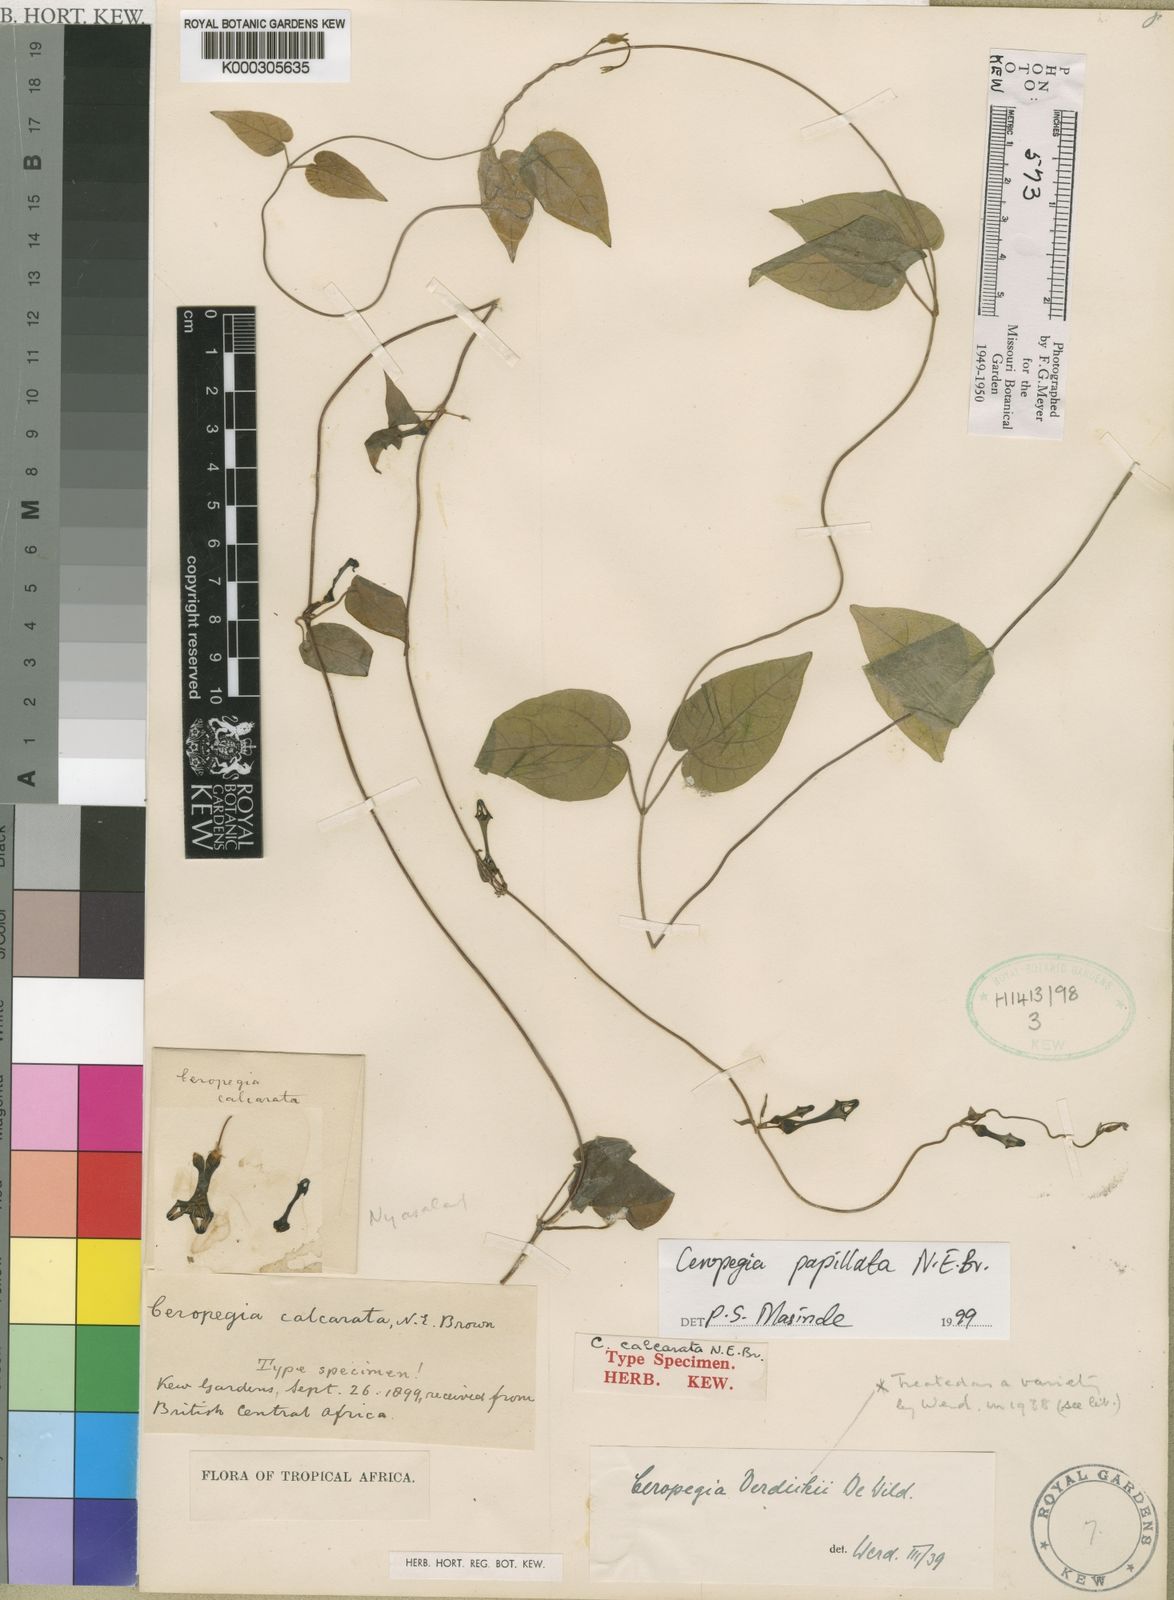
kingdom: Plantae
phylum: Tracheophyta
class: Magnoliopsida
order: Gentianales
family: Apocynaceae
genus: Ceropegia
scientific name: Ceropegia papillata
